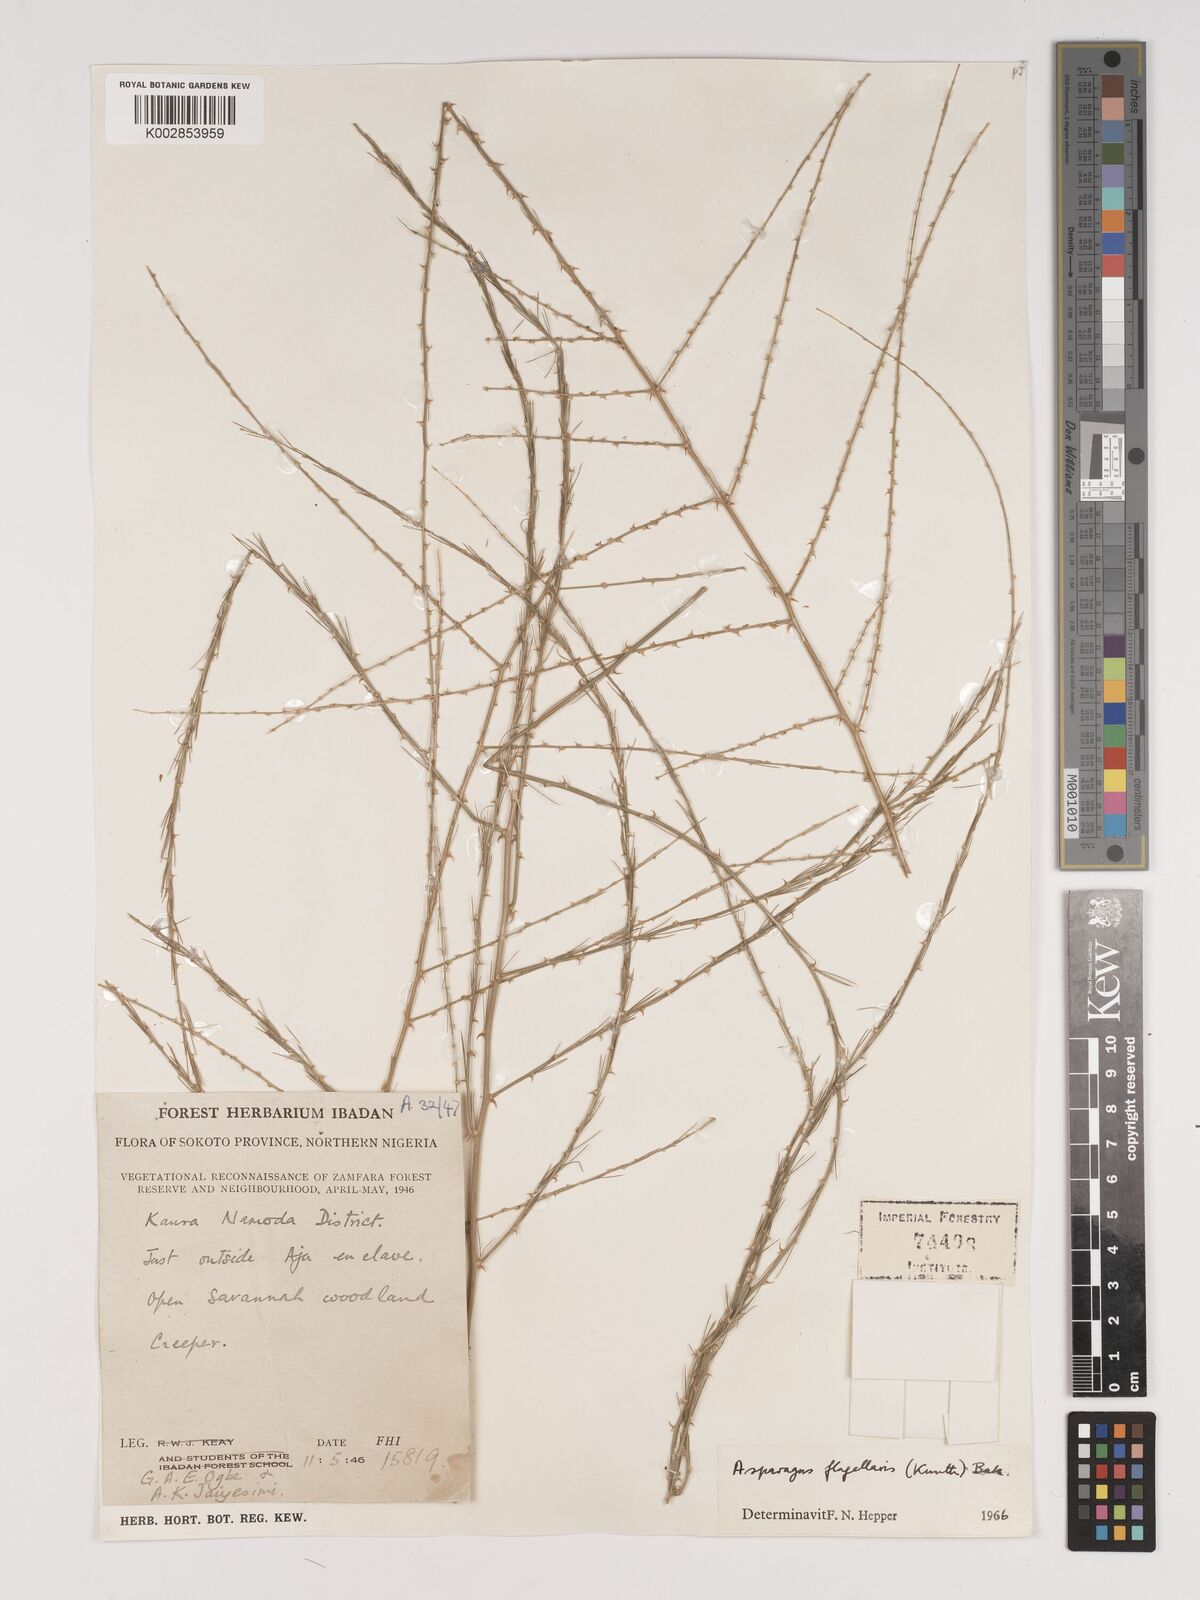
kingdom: Plantae
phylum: Tracheophyta
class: Liliopsida
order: Asparagales
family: Asparagaceae
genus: Asparagus
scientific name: Asparagus flagellaris
